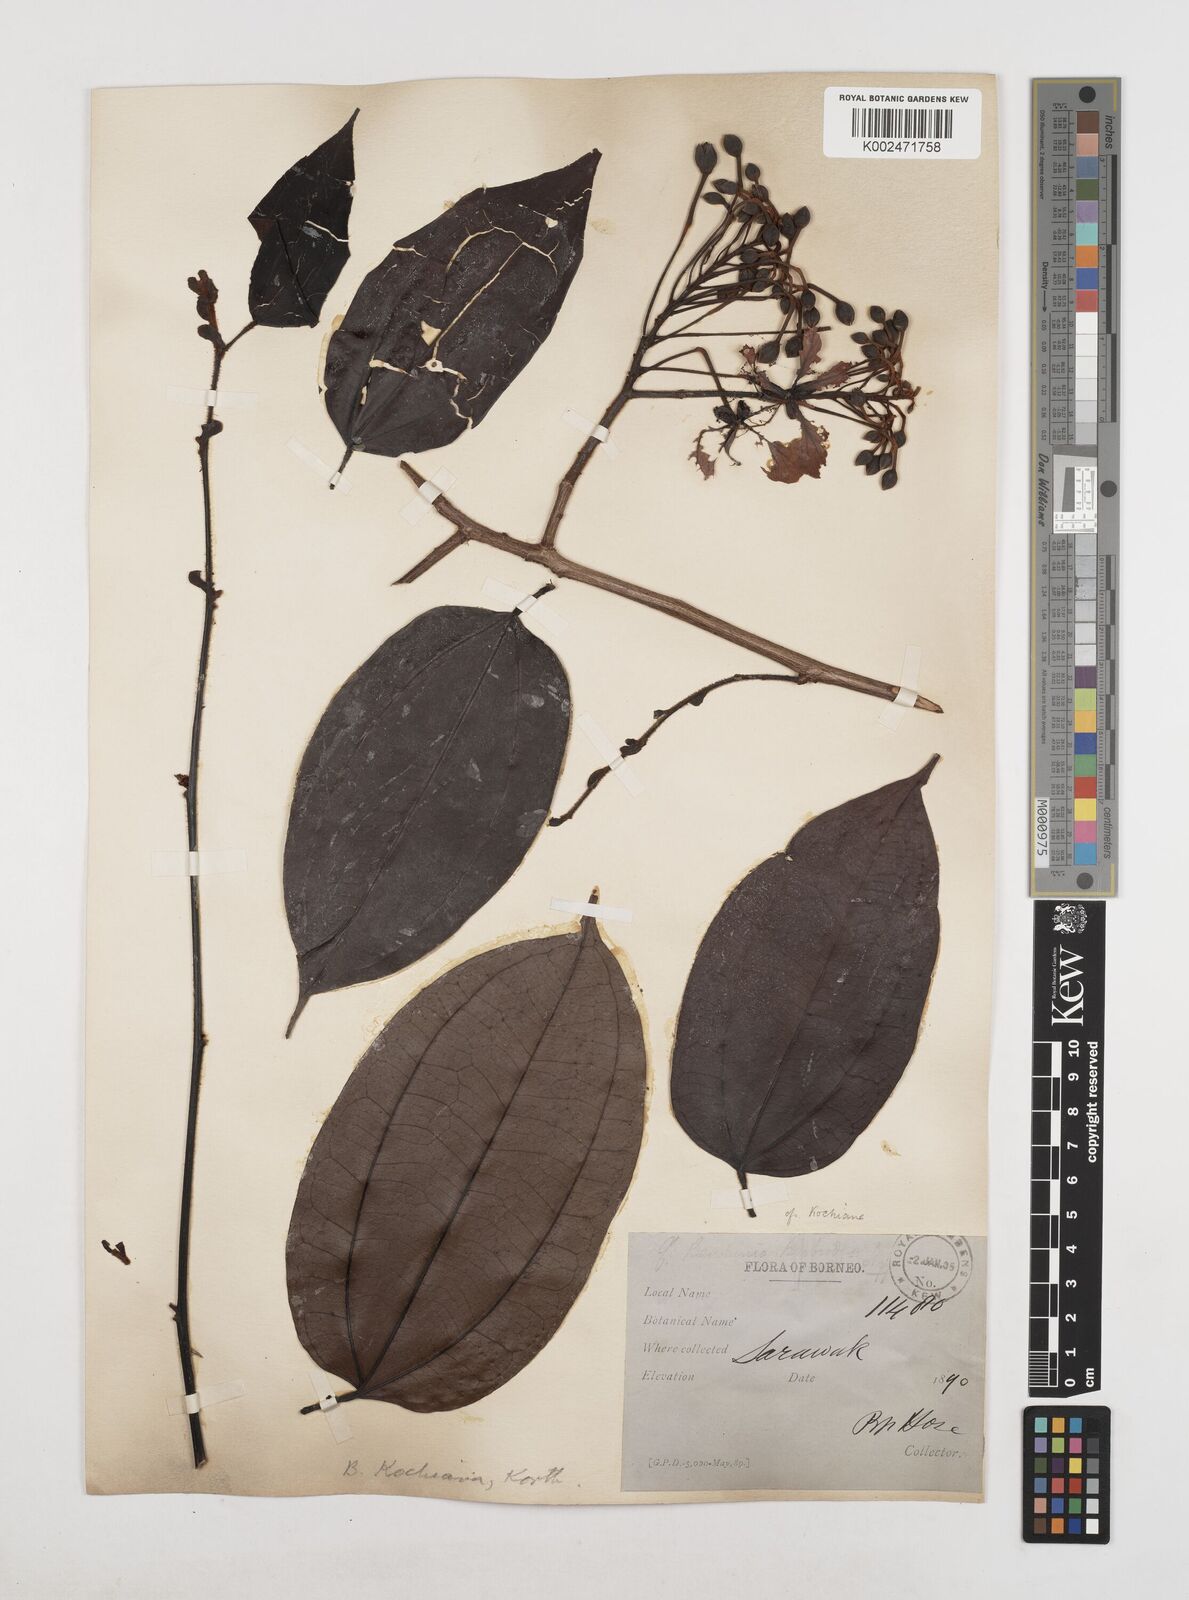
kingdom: Plantae
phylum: Tracheophyta
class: Magnoliopsida
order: Fabales
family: Fabaceae
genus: Phanera
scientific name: Phanera kockiana
